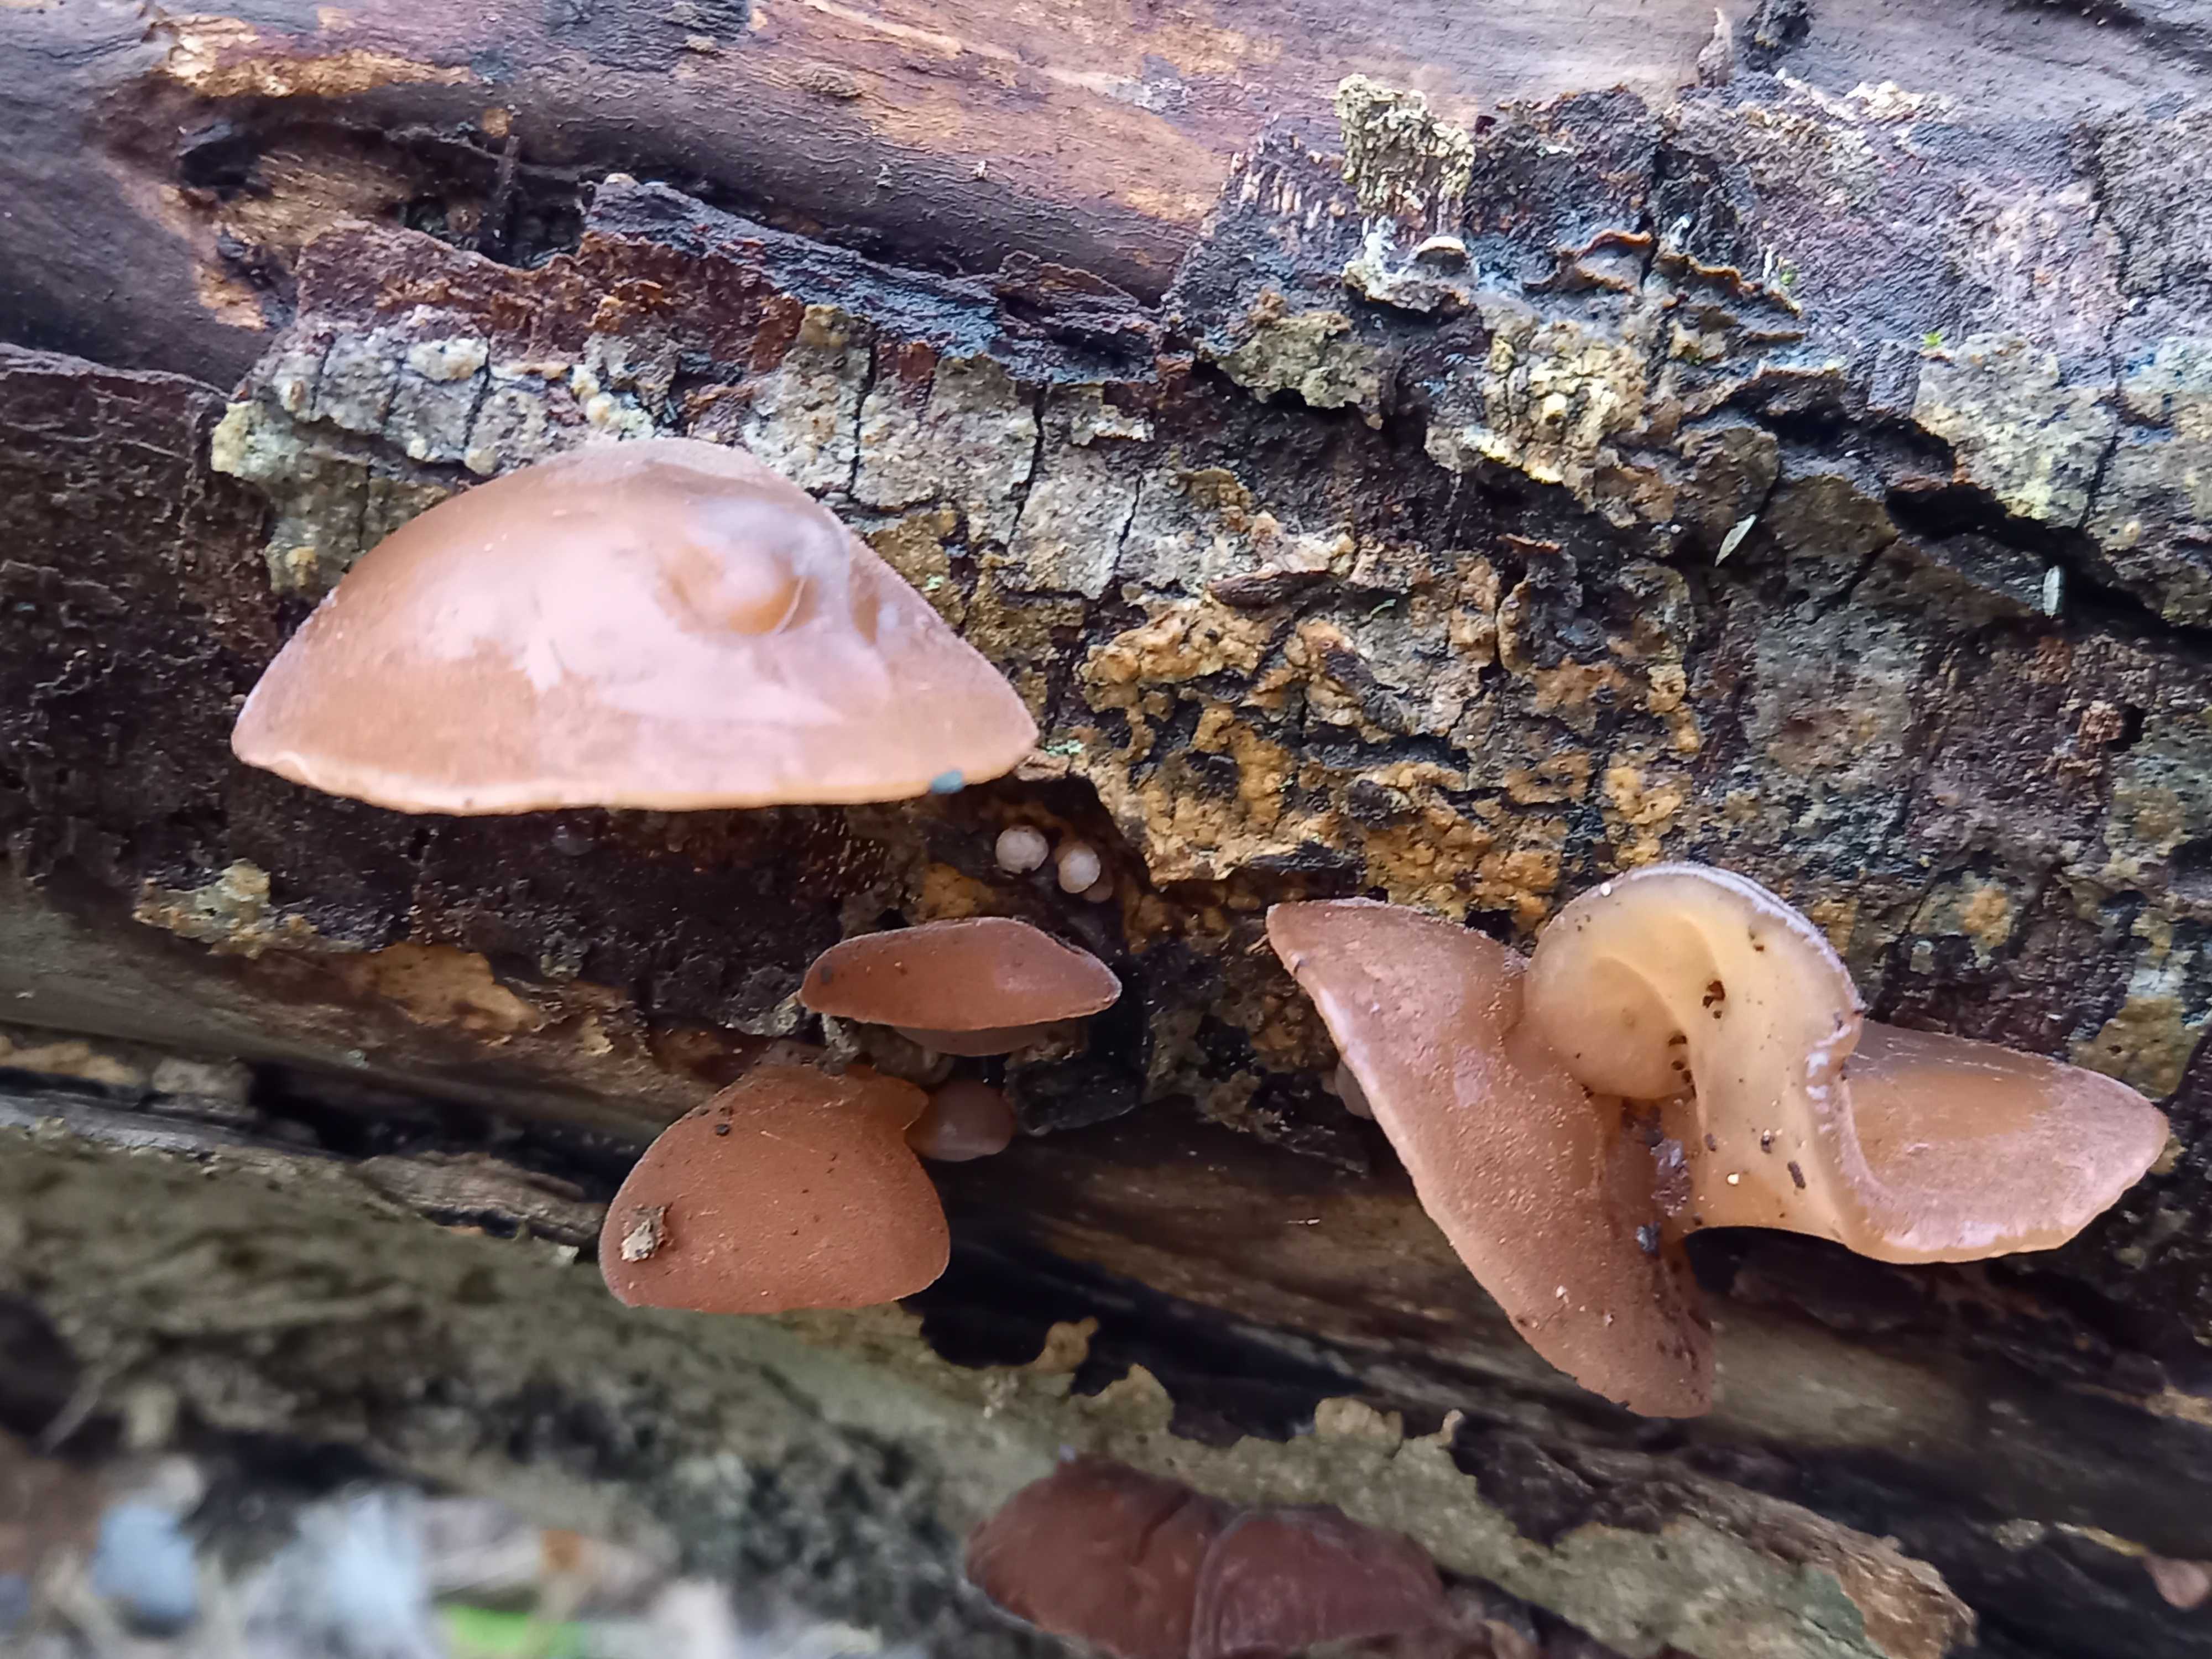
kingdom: Fungi
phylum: Basidiomycota
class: Agaricomycetes
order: Auriculariales
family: Auriculariaceae
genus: Auricularia
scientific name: Auricularia auricula-judae
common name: almindelig judasøre
